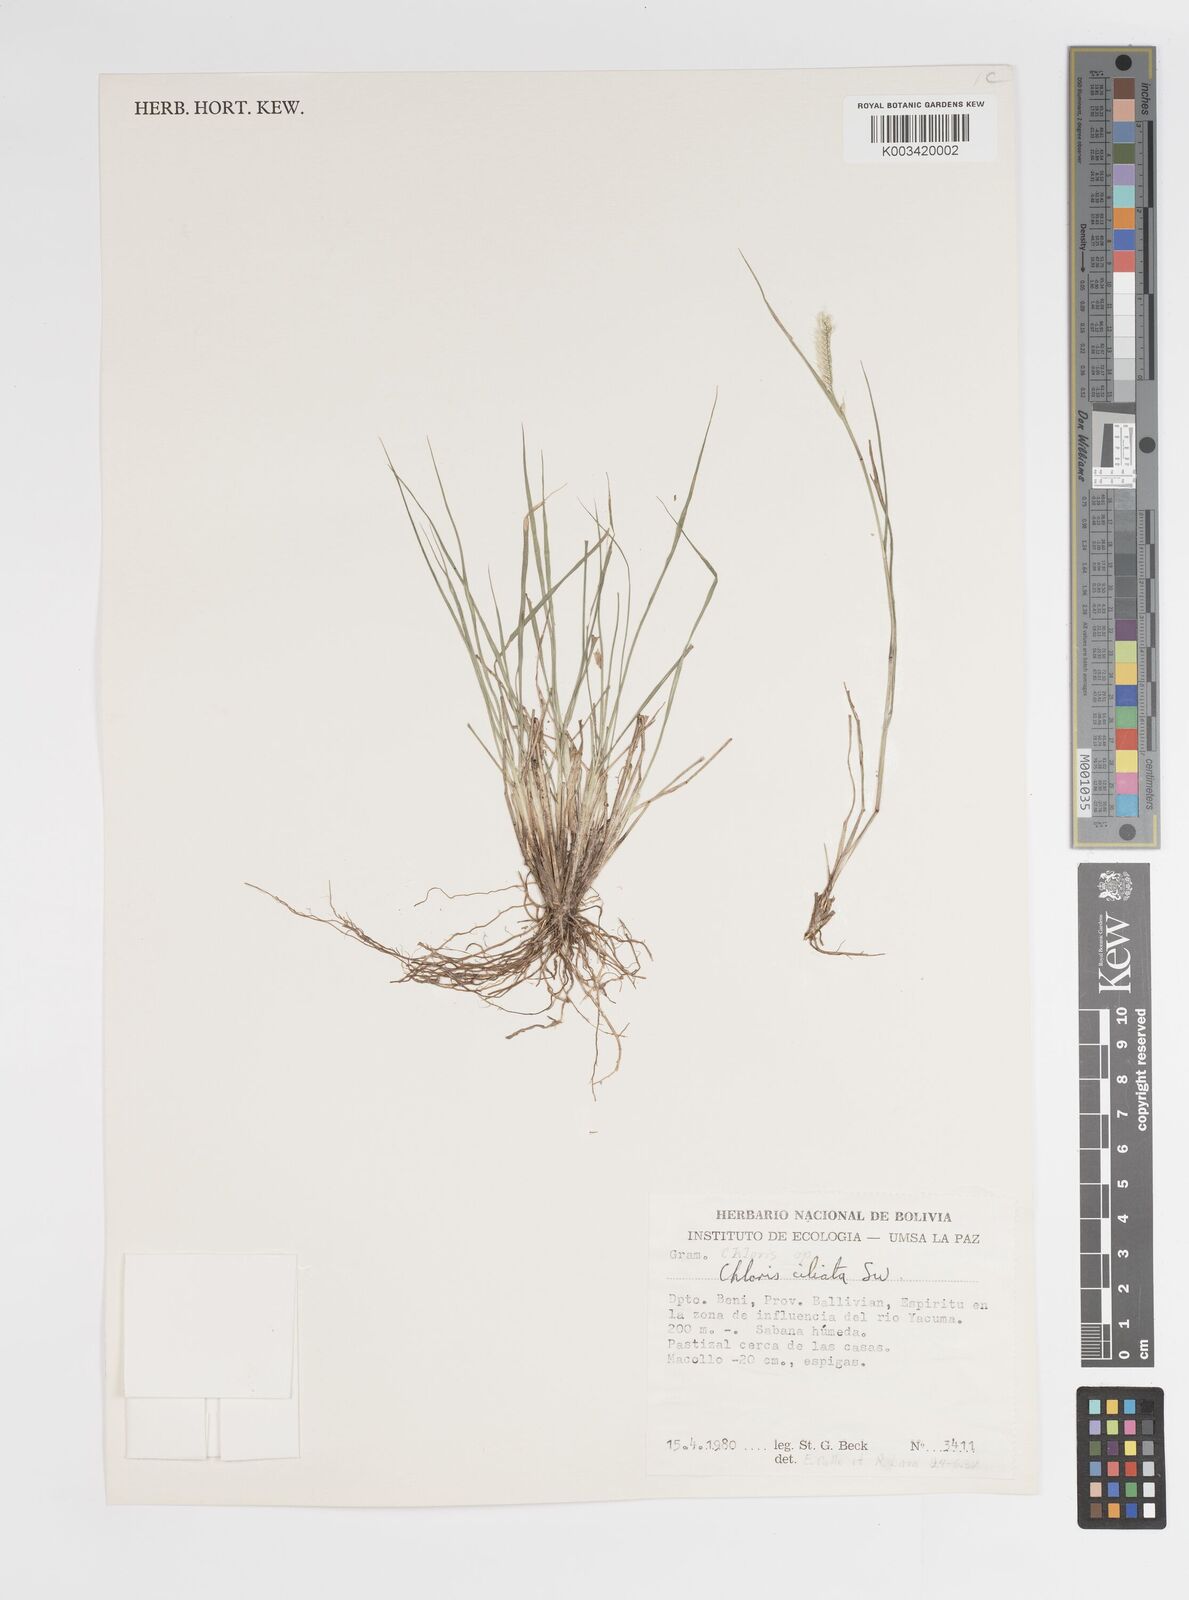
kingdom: Plantae
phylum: Tracheophyta
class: Liliopsida
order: Poales
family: Poaceae
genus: Stapfochloa
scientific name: Stapfochloa parodiana
